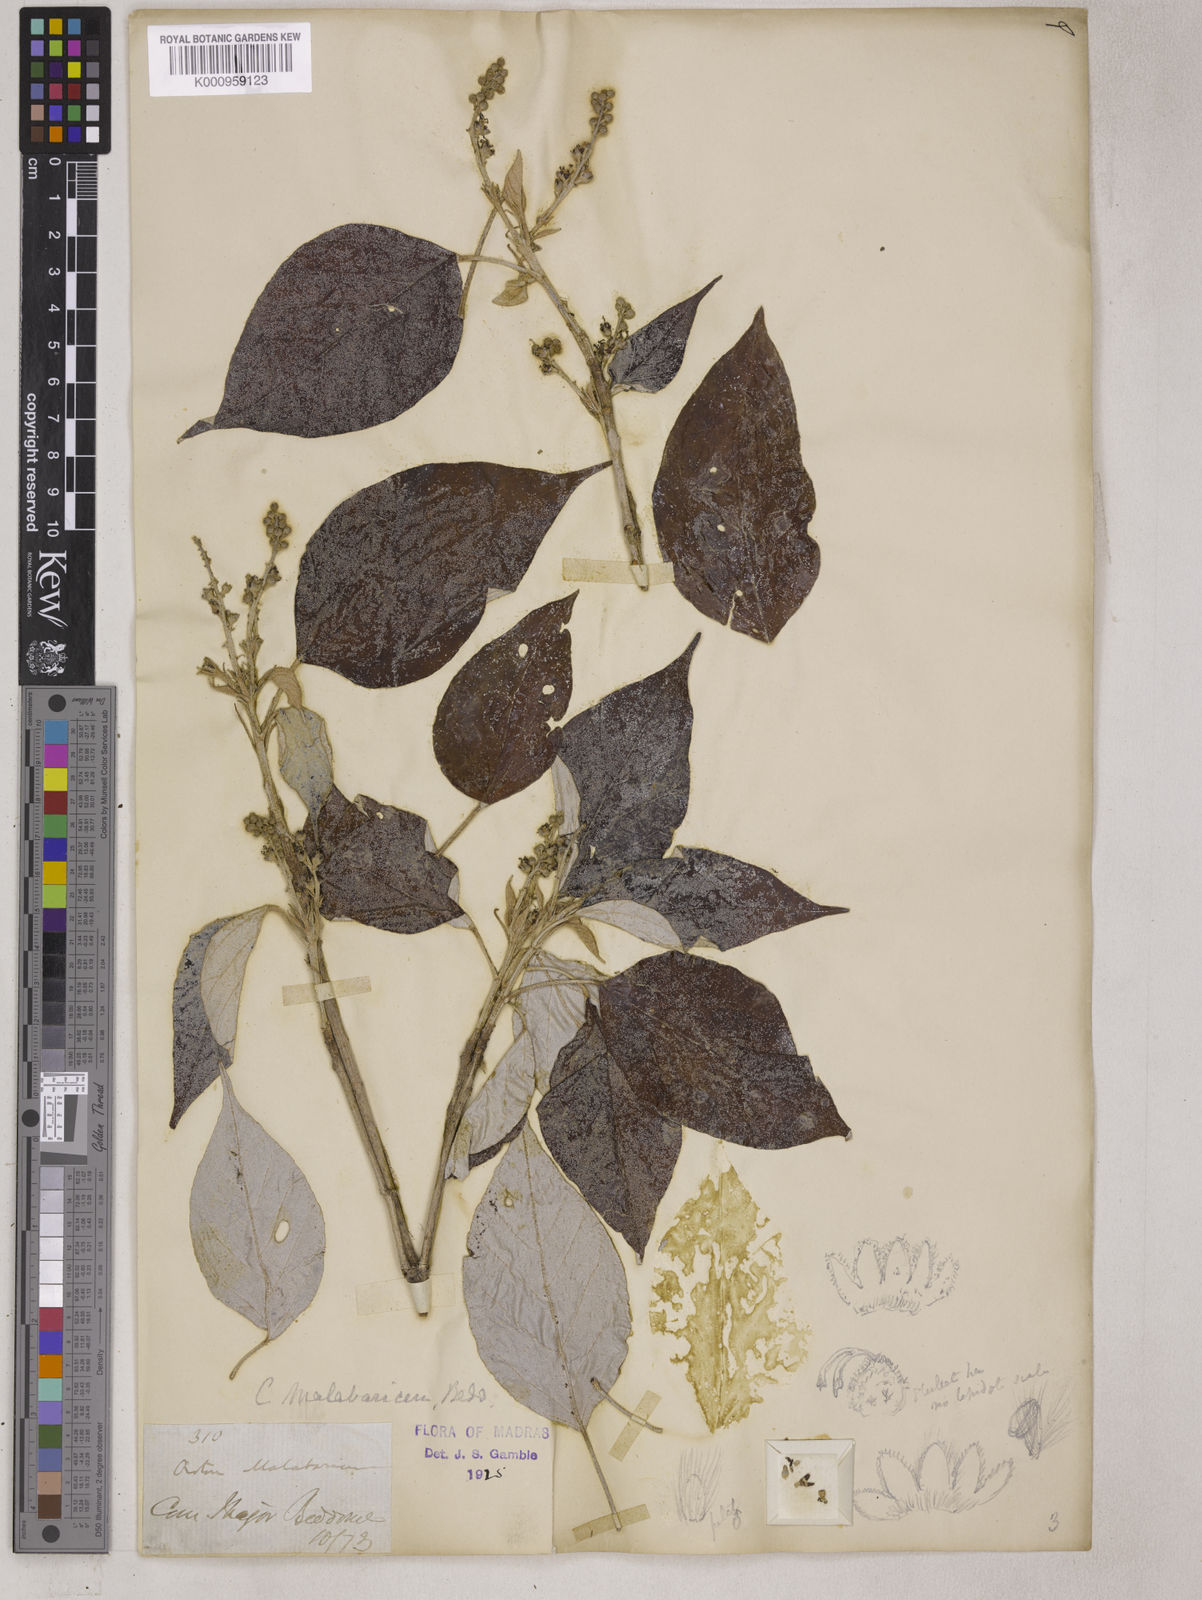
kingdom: Plantae
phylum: Tracheophyta
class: Magnoliopsida
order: Malpighiales
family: Euphorbiaceae
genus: Croton
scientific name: Croton malabaricus
